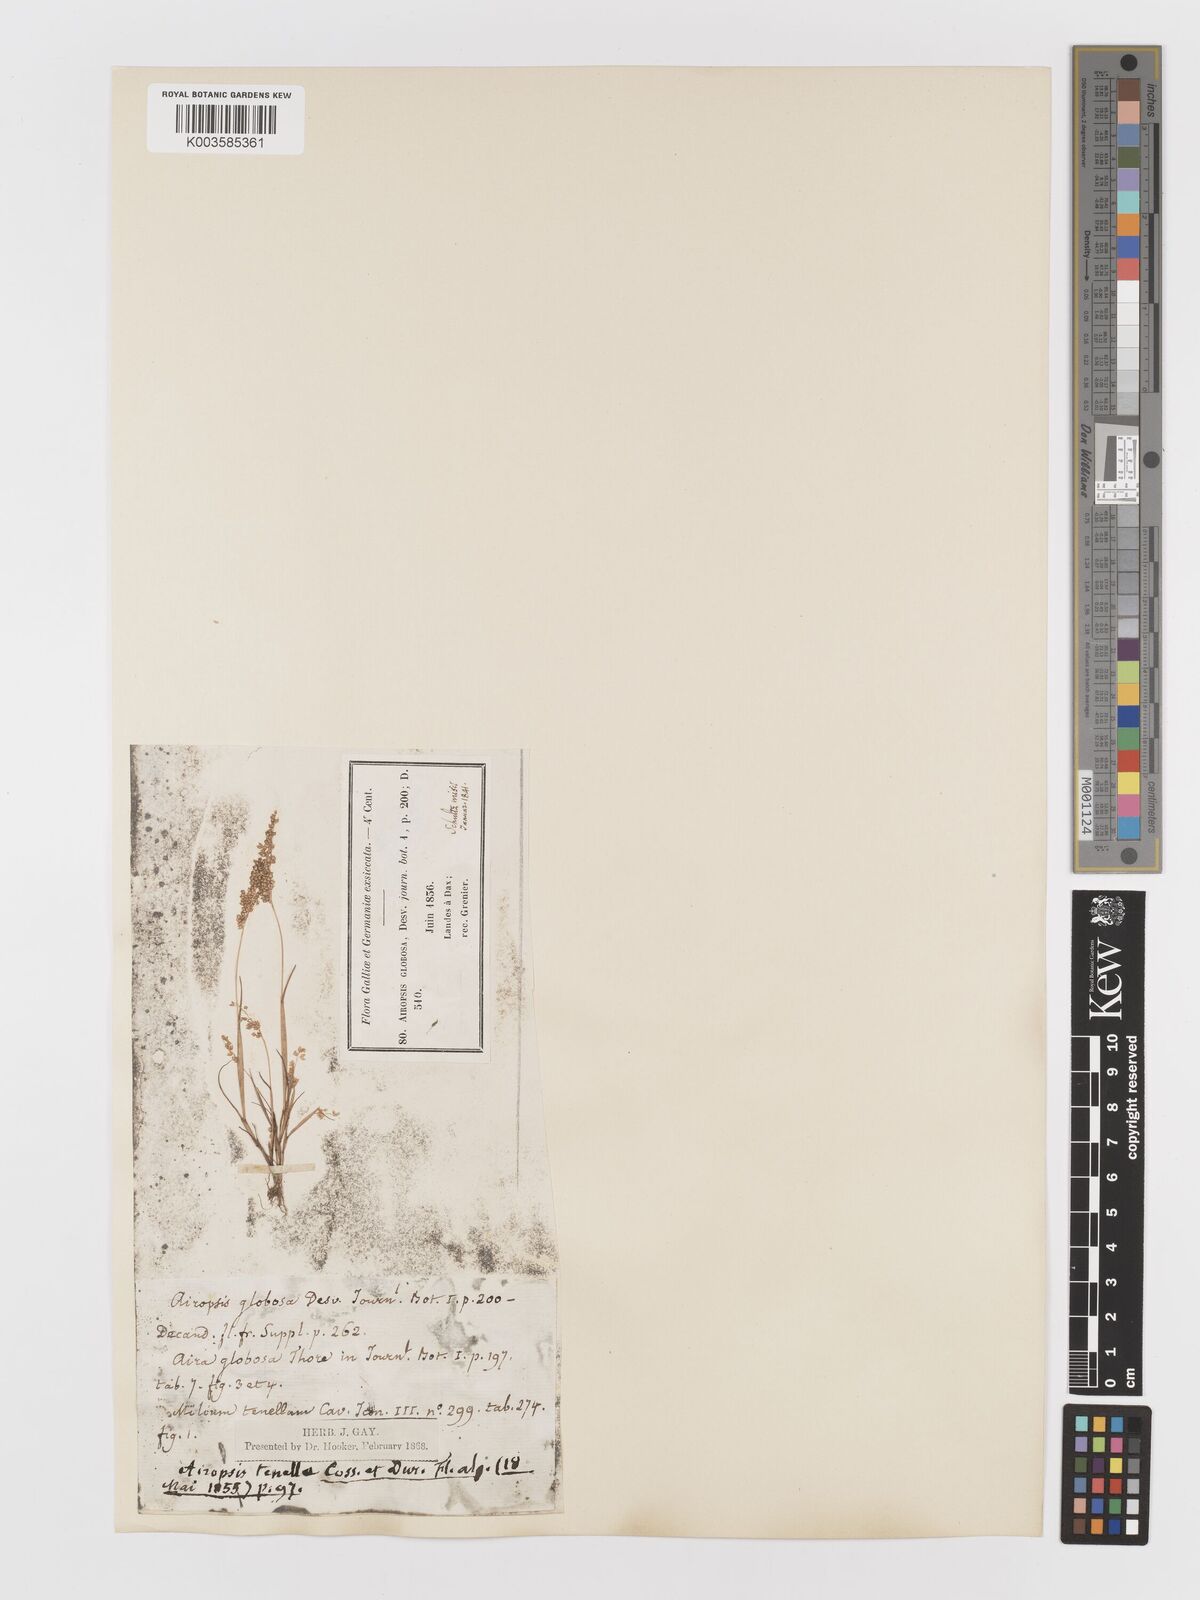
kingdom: Plantae
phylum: Tracheophyta
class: Liliopsida
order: Poales
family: Poaceae
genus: Airopsis
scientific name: Airopsis tenella
